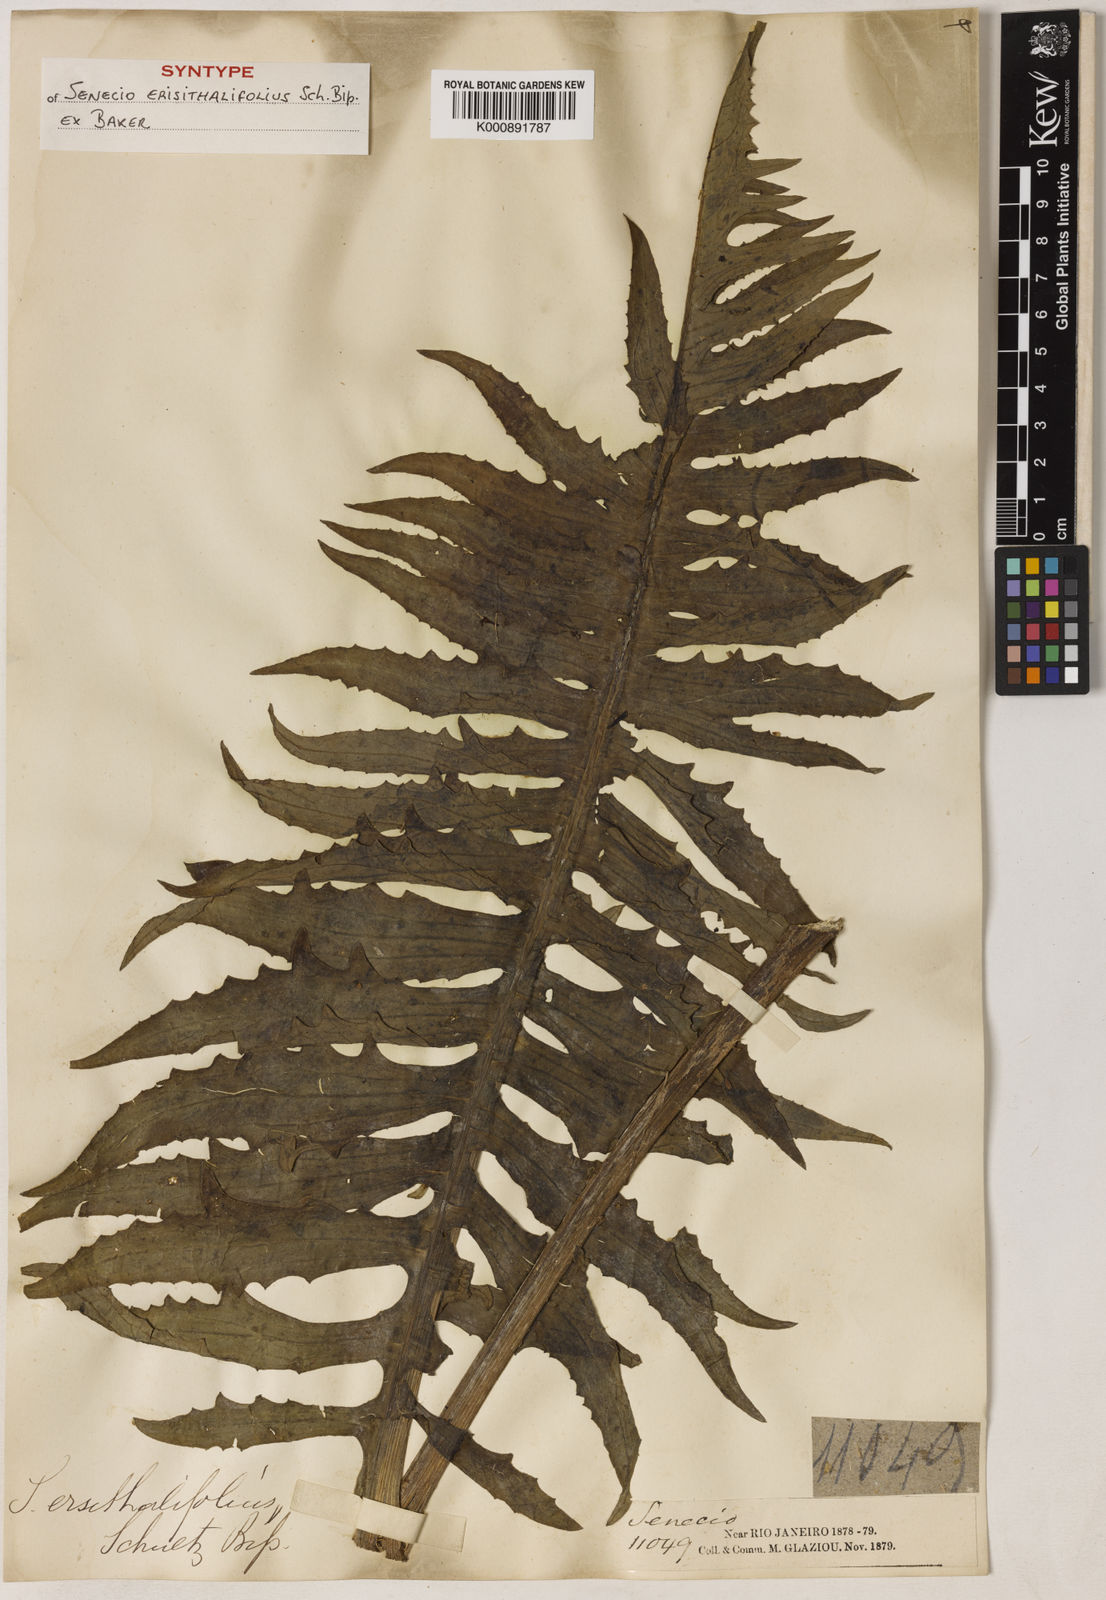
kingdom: Plantae
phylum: Tracheophyta
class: Magnoliopsida
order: Asterales
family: Asteraceae
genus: Senecio
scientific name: Senecio erisithalifolius
